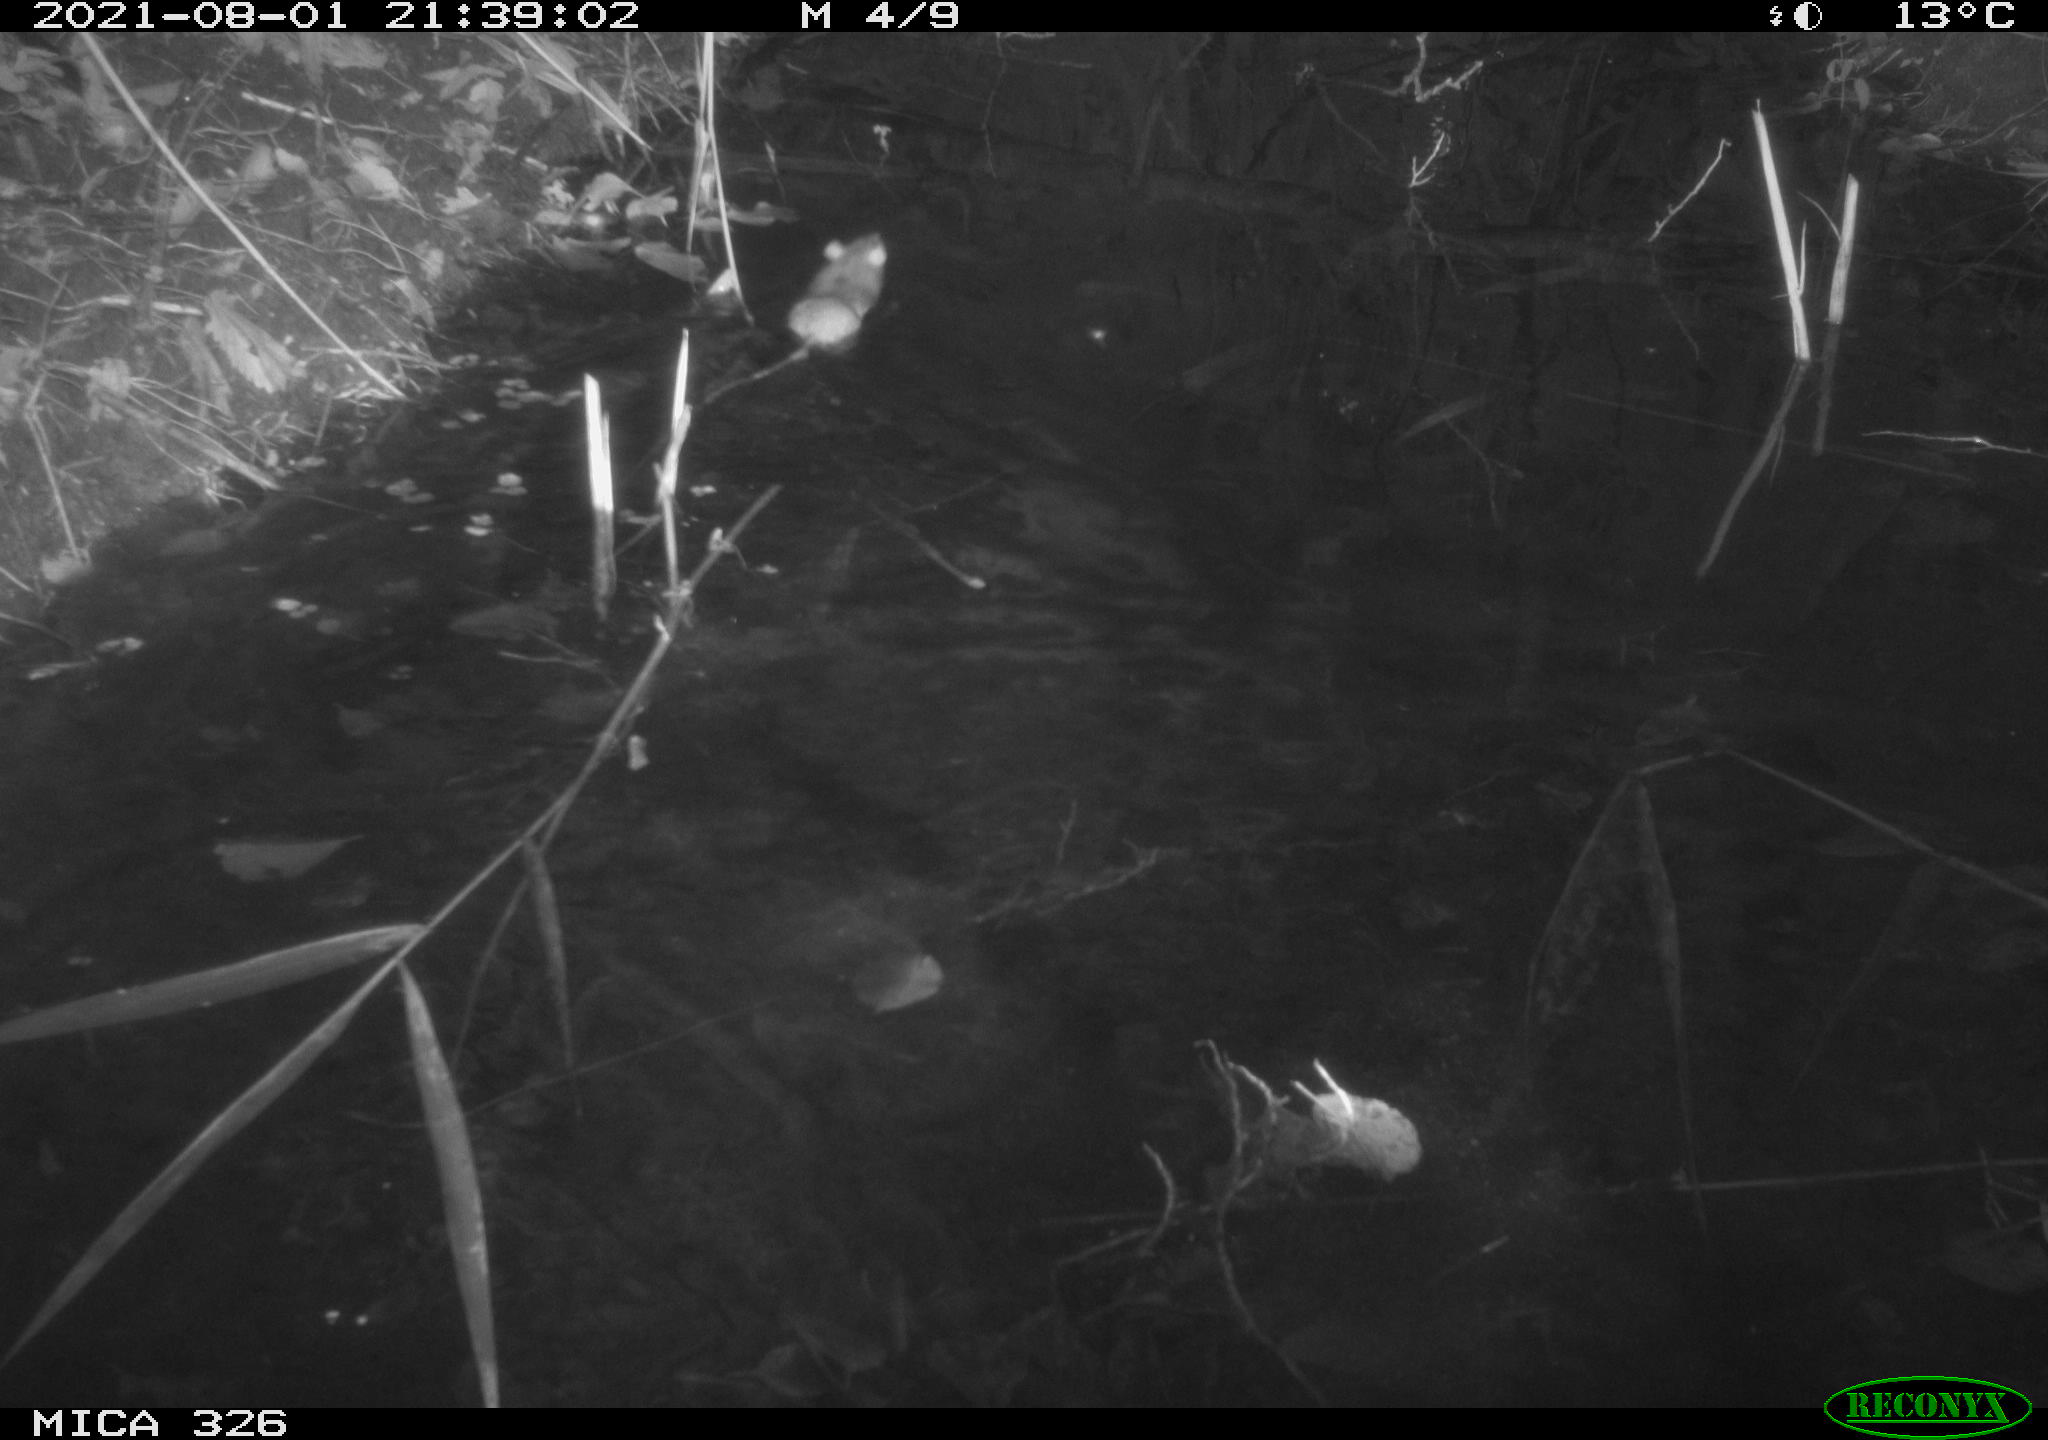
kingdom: Animalia
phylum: Chordata
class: Mammalia
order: Rodentia
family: Muridae
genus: Rattus
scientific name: Rattus norvegicus
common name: Brown rat
